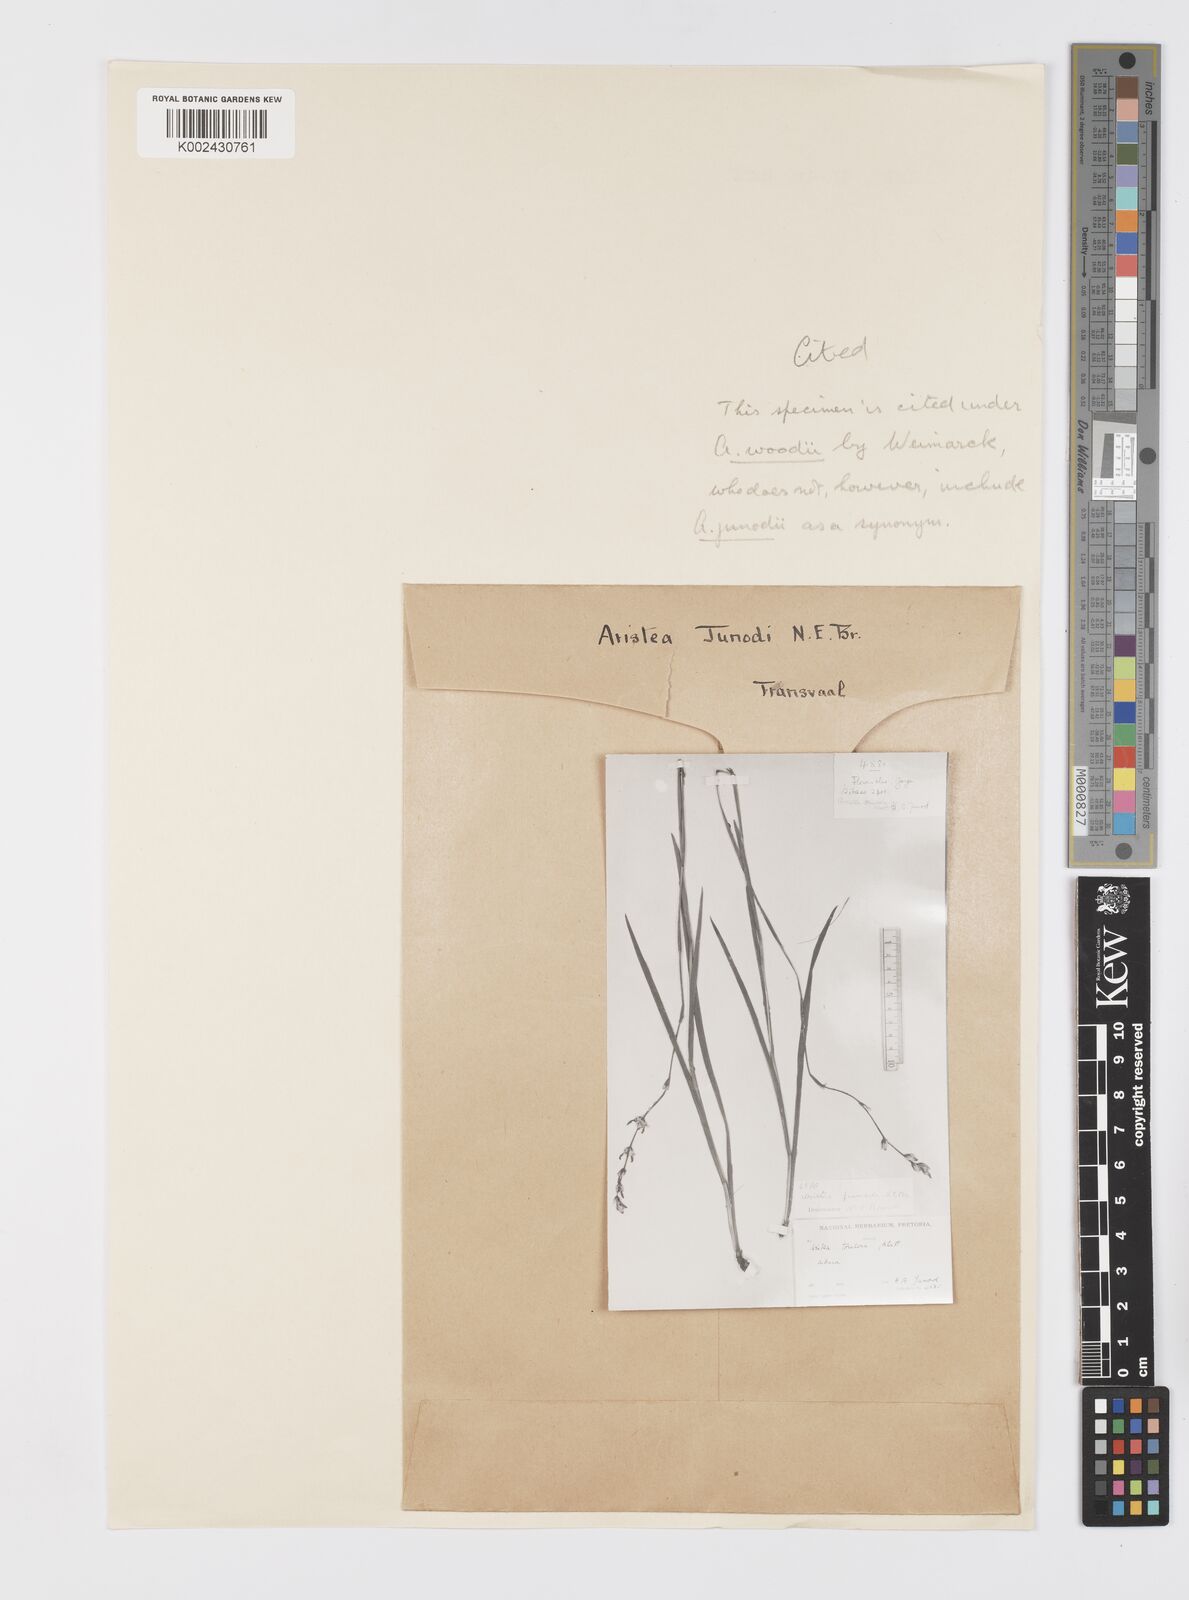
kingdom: Plantae
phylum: Tracheophyta
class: Liliopsida
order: Asparagales
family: Iridaceae
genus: Aristea
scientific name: Aristea torulosa
